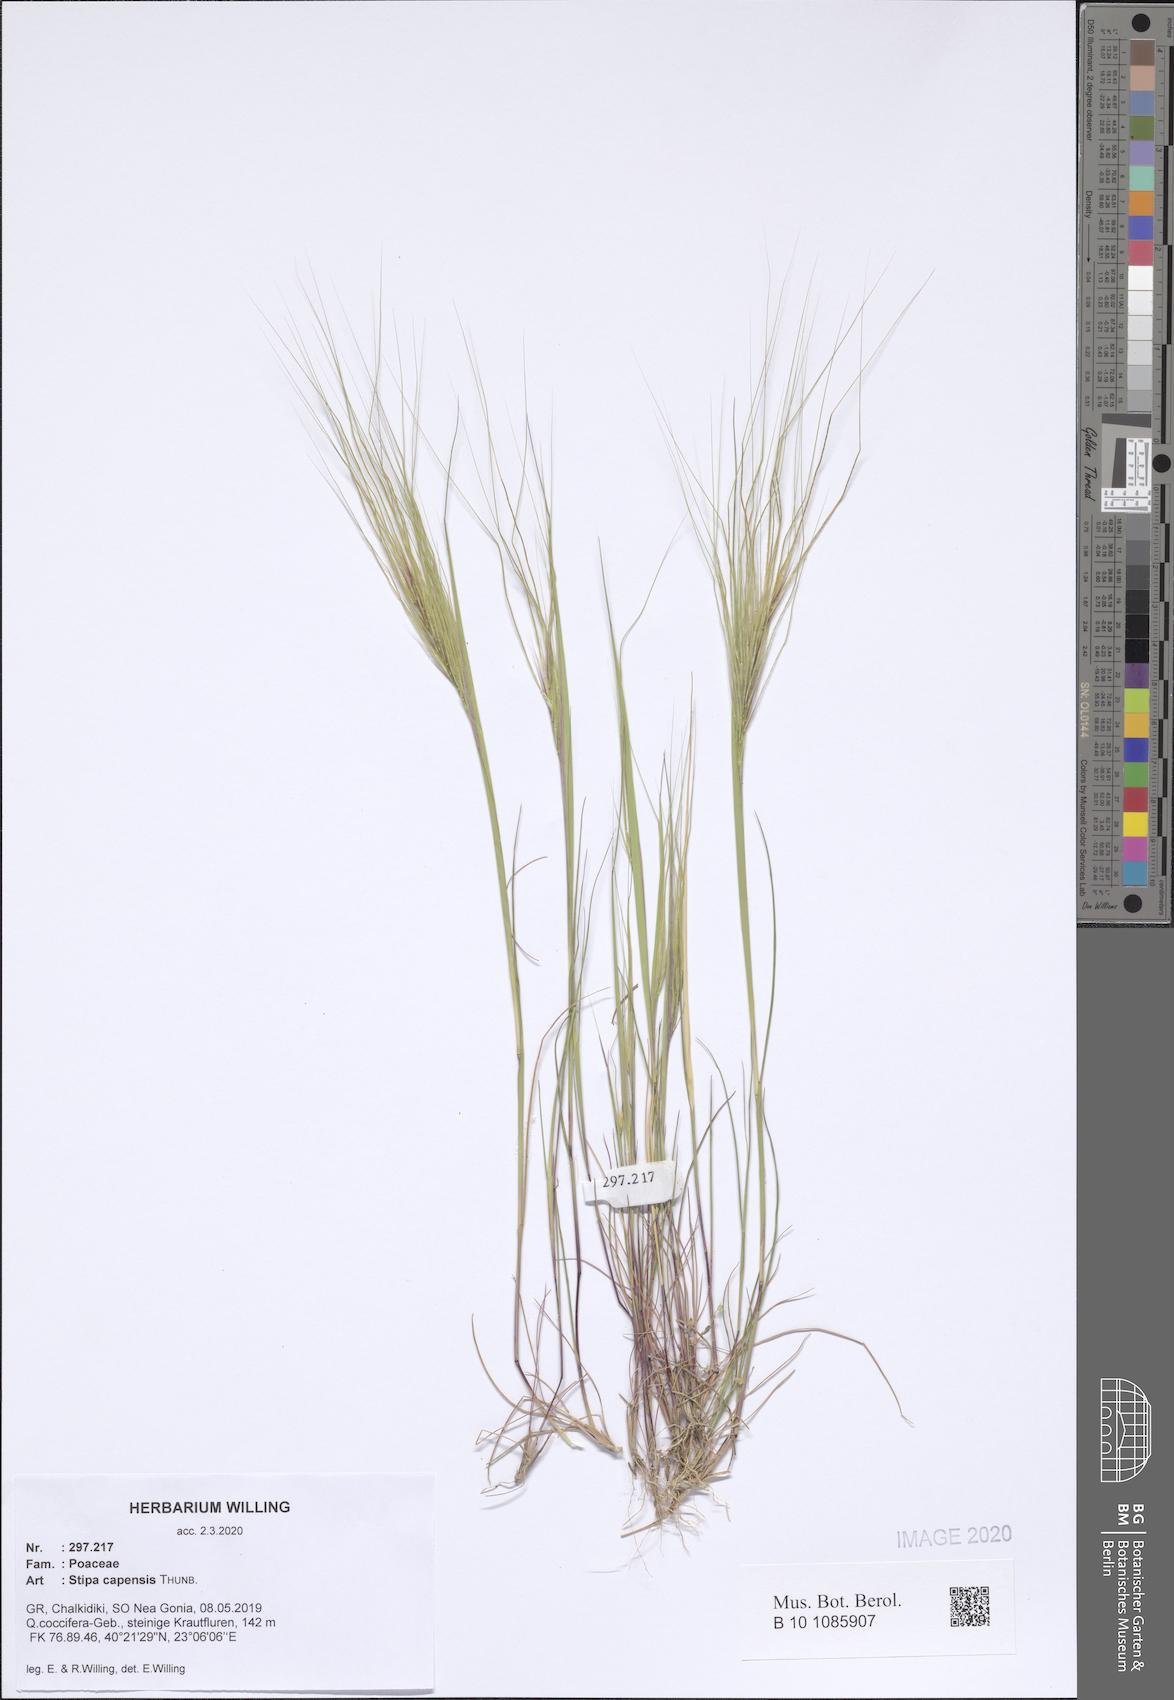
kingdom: Plantae
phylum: Tracheophyta
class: Liliopsida
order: Poales
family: Poaceae
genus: Stipellula
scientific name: Stipellula capensis
